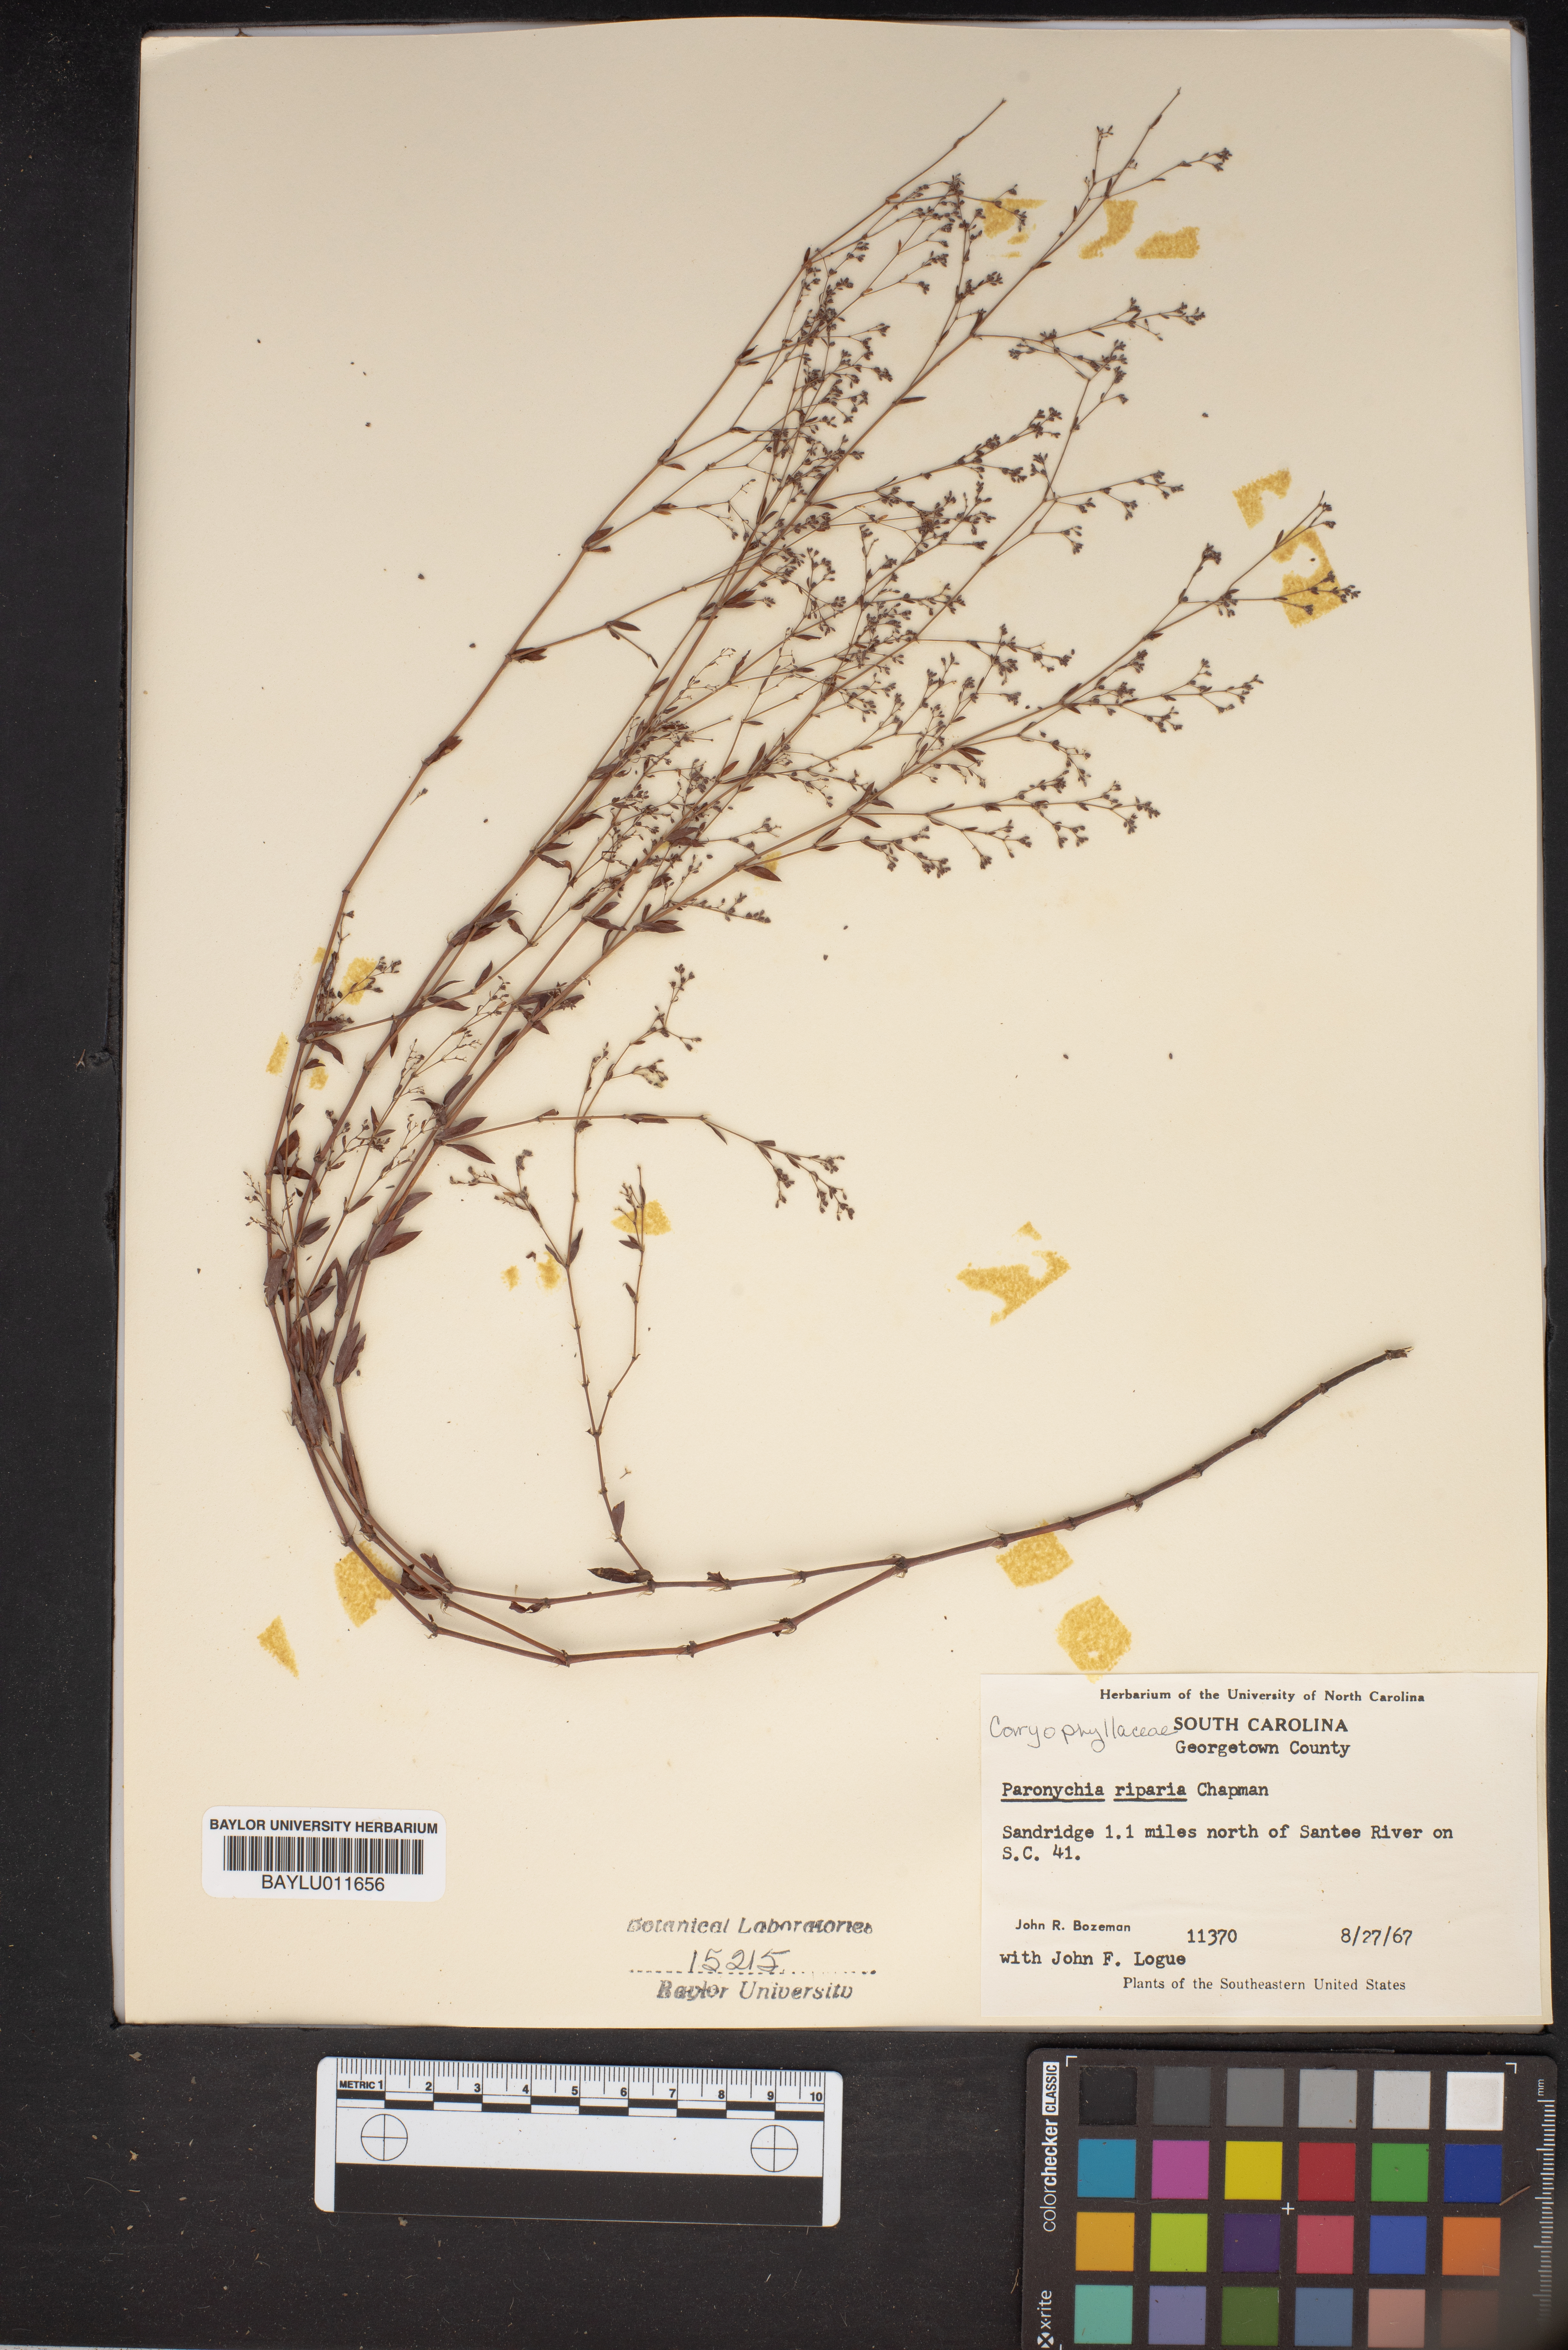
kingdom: Plantae
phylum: Tracheophyta
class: Magnoliopsida
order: Caryophyllales
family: Caryophyllaceae
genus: Paronychia
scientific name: Paronychia baldwinii
